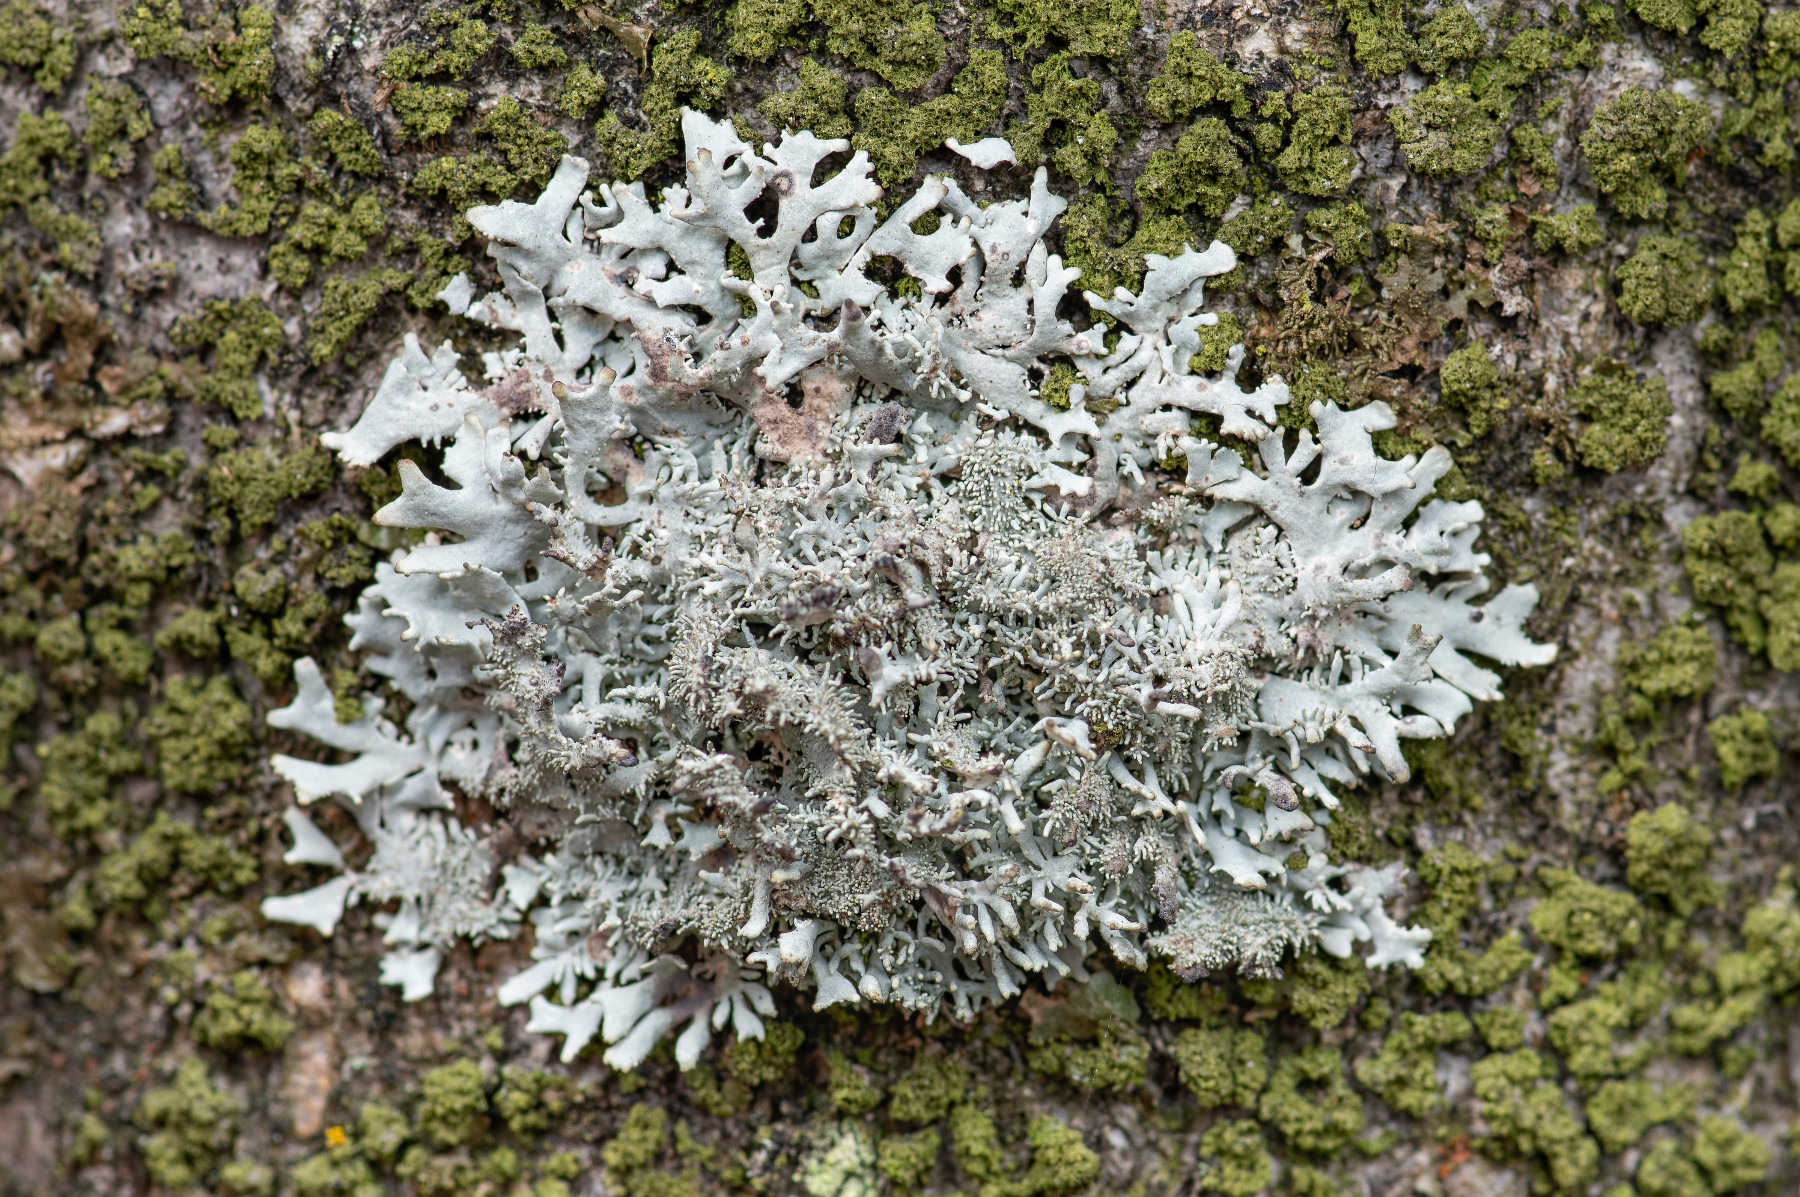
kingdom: Fungi
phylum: Ascomycota
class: Lecanoromycetes
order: Lecanorales
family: Parmeliaceae
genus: Pseudevernia
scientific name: Pseudevernia furfuracea
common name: grå fyrrelav
